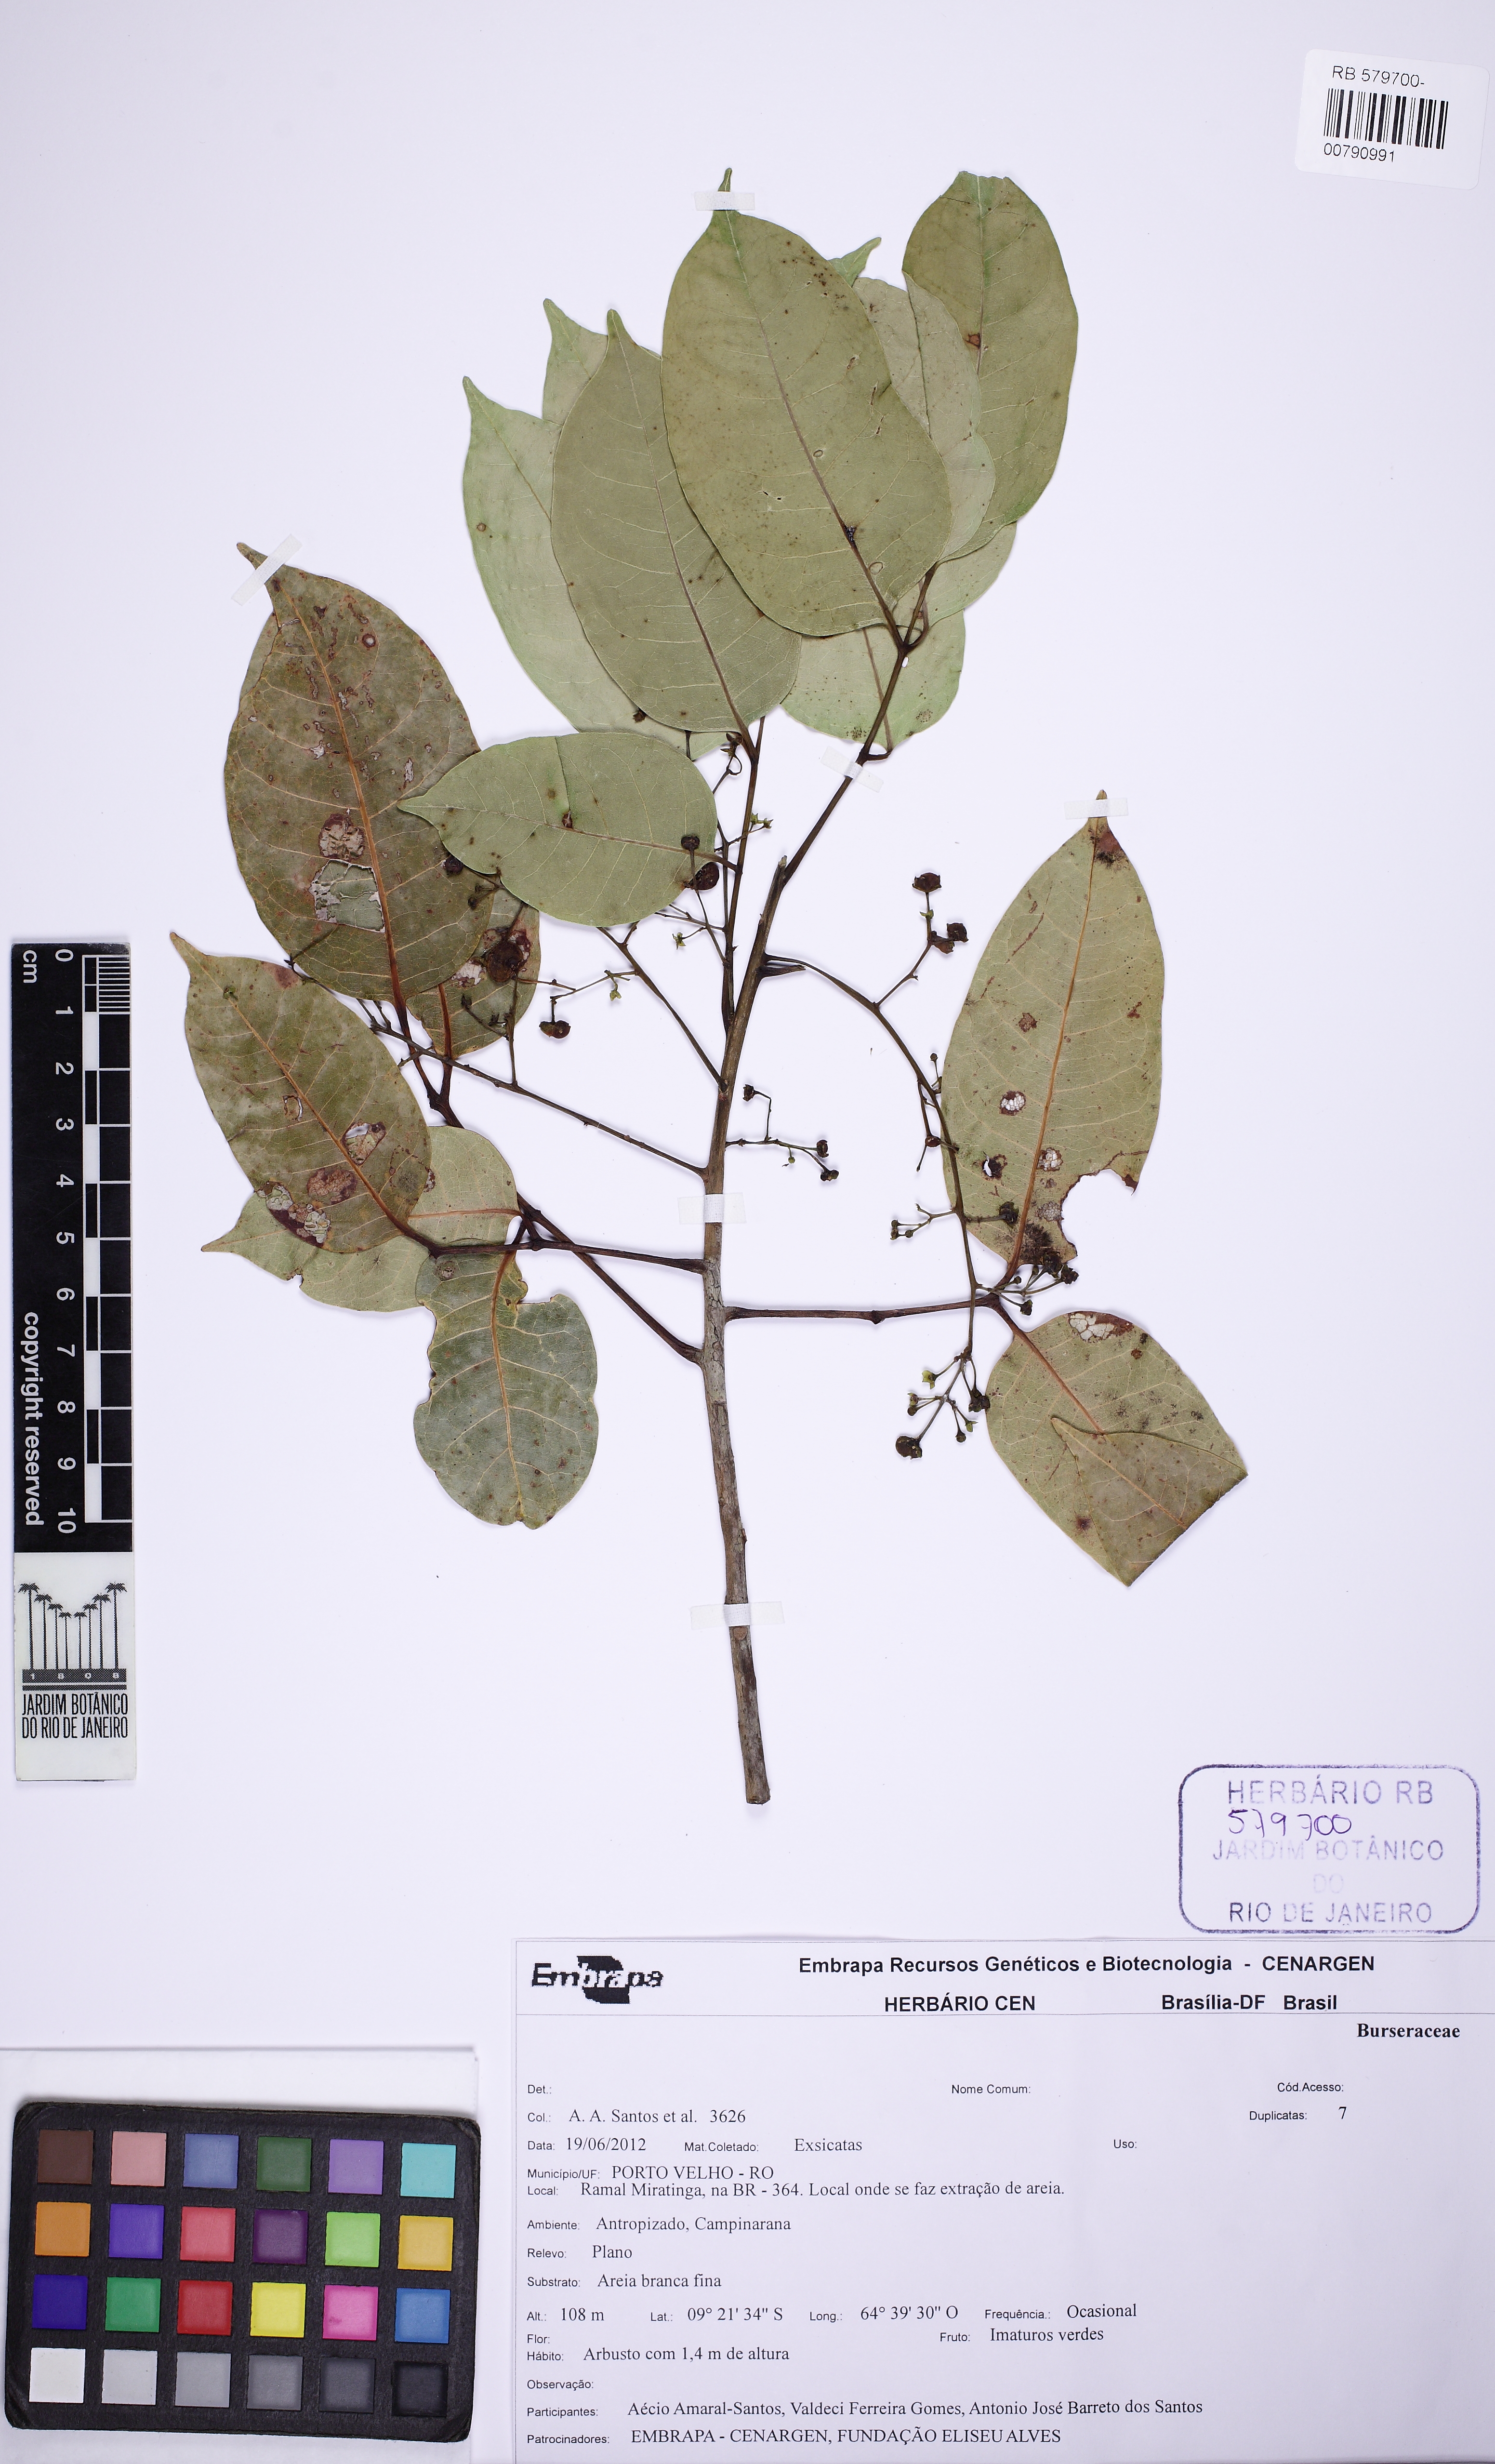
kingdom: Plantae
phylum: Tracheophyta
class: Magnoliopsida
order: Sapindales
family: Burseraceae
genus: Dacryodes
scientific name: Dacryodes paraensis
